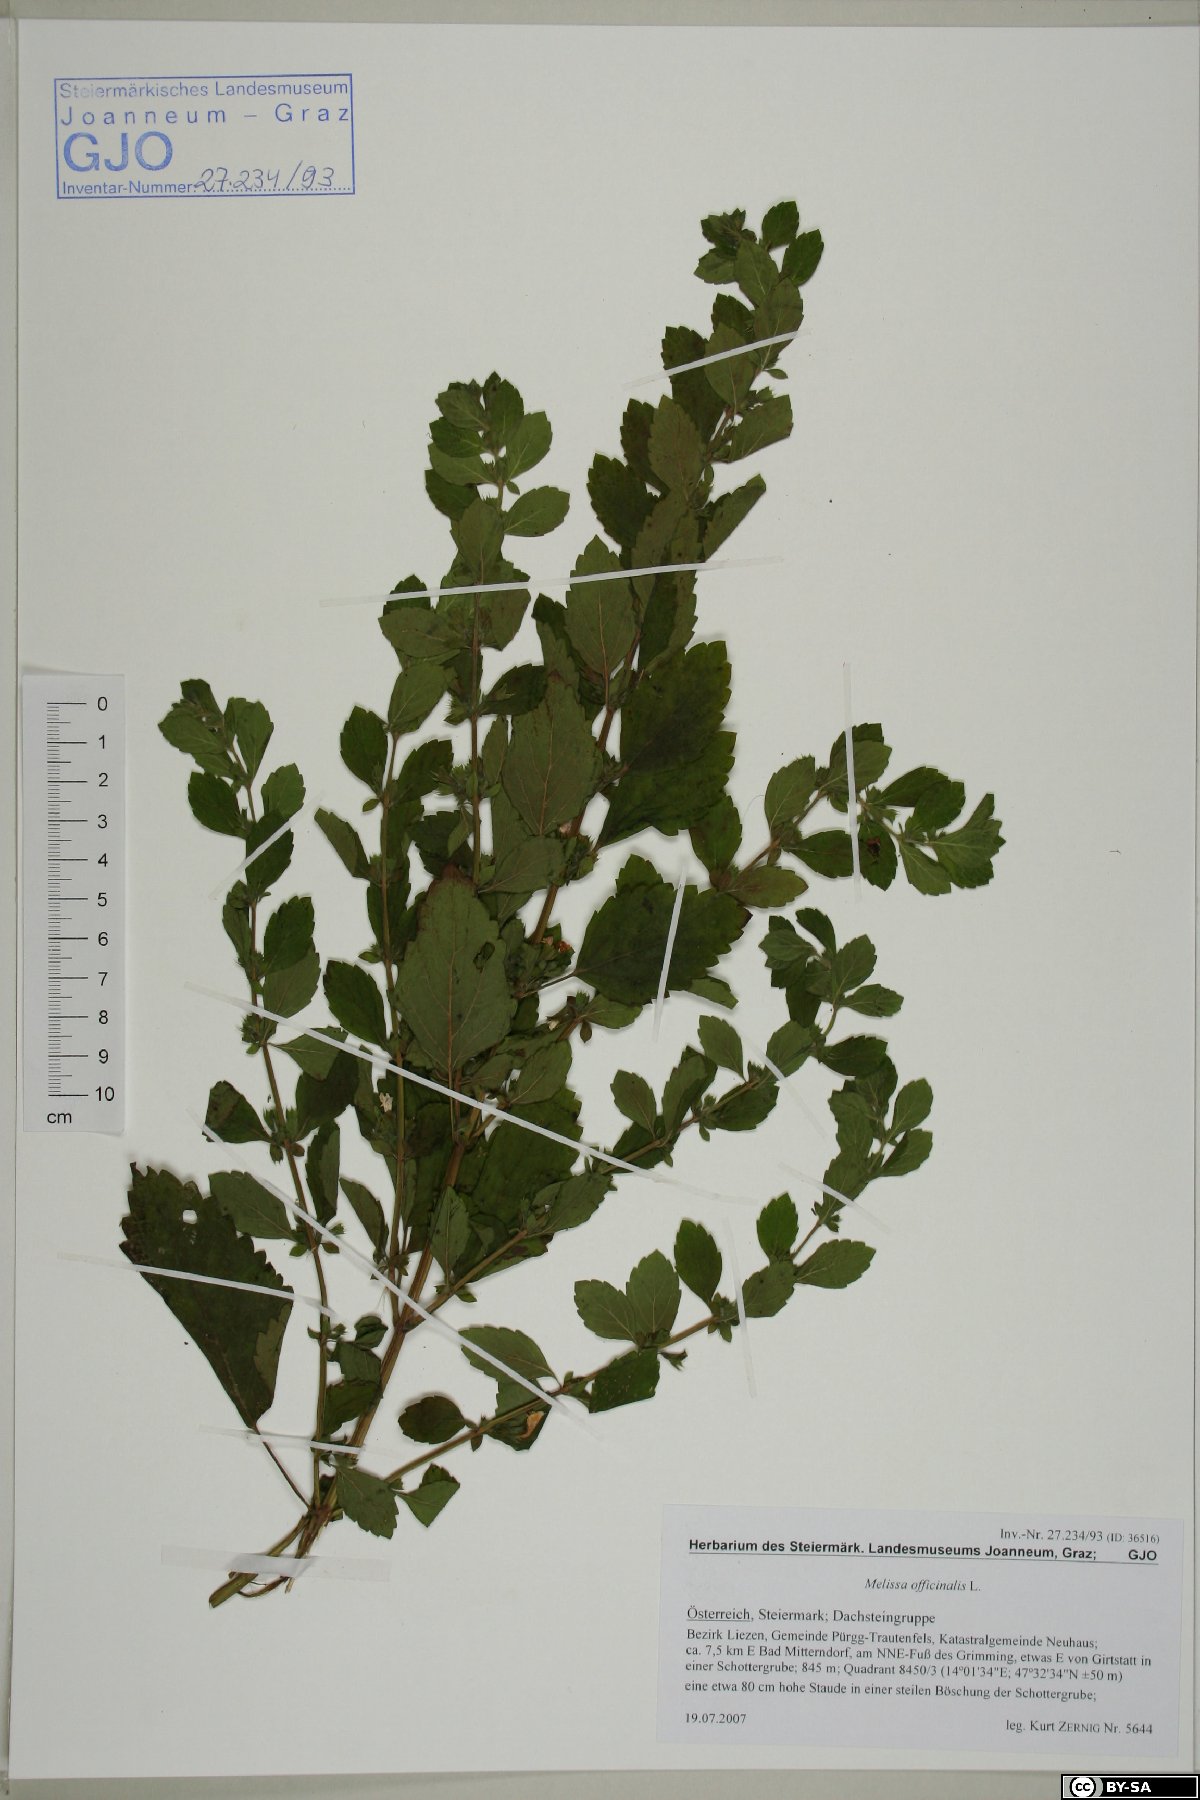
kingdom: Plantae
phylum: Tracheophyta
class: Magnoliopsida
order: Lamiales
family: Lamiaceae
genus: Melissa
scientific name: Melissa officinalis
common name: Balm
